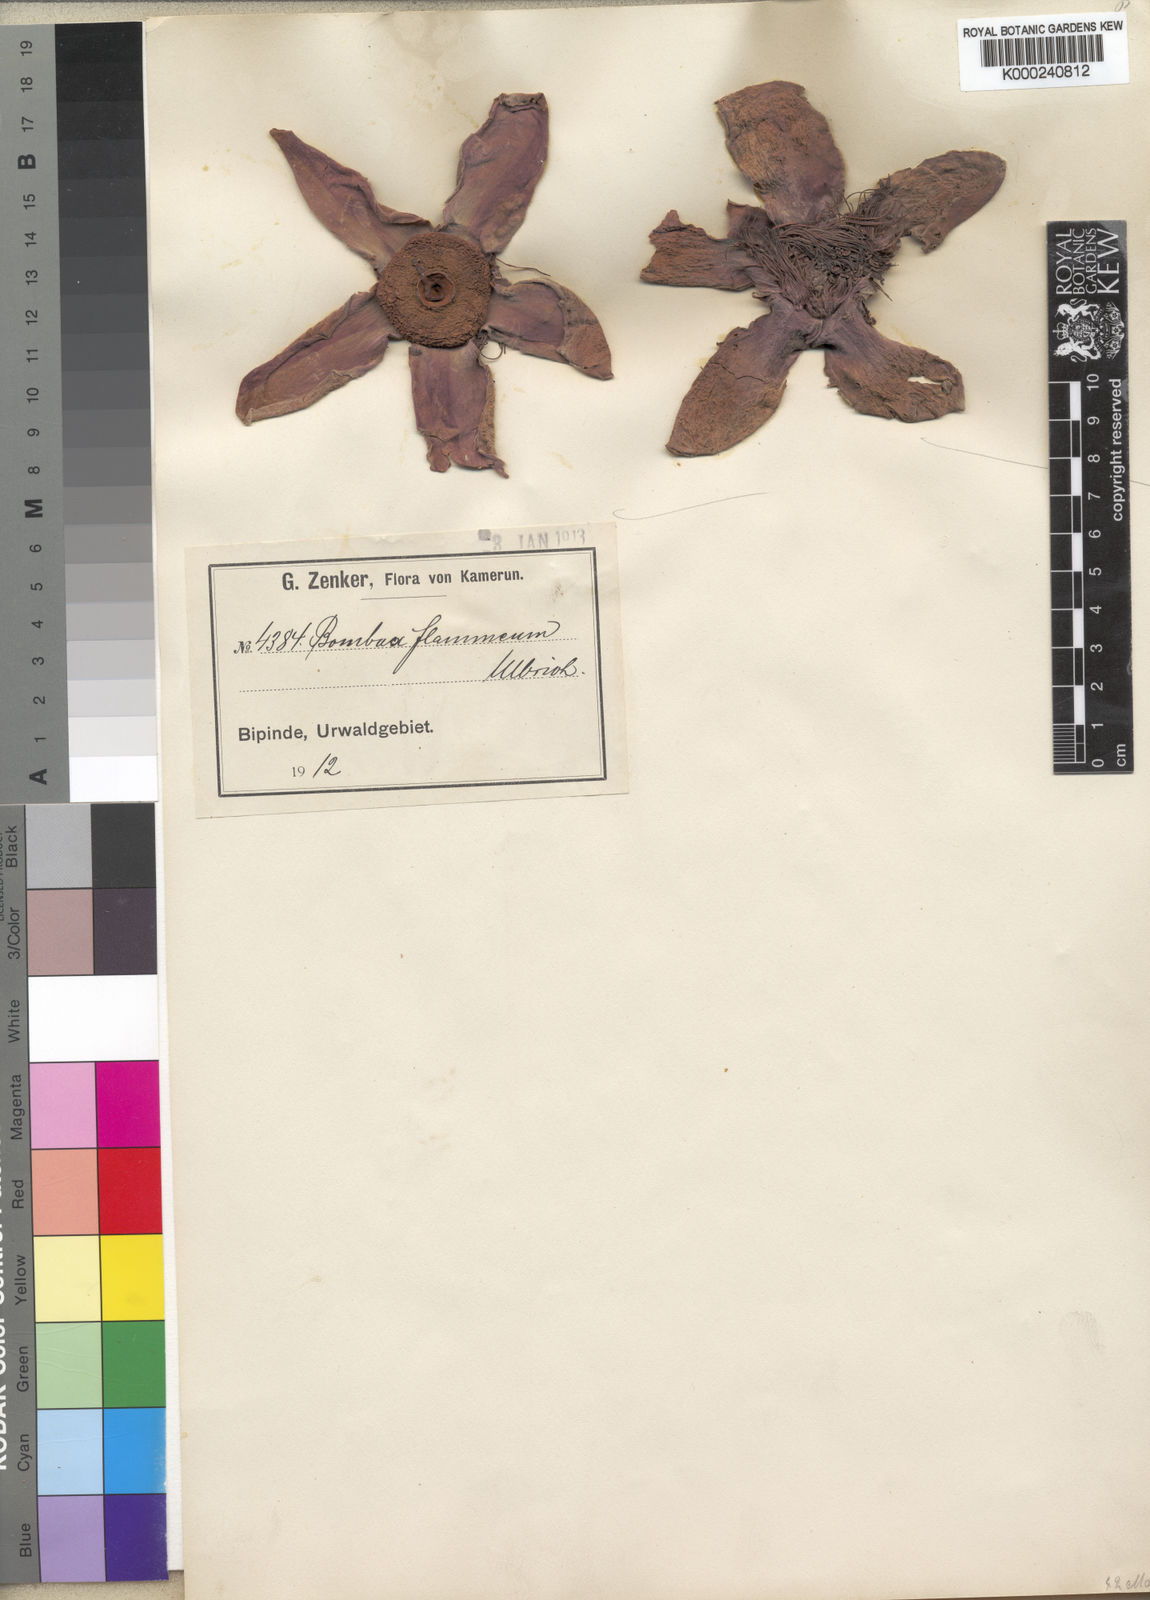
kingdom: Plantae
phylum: Tracheophyta
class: Magnoliopsida
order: Malvales
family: Malvaceae
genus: Bombax
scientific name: Bombax buonopozense
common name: Gold coast bombax
